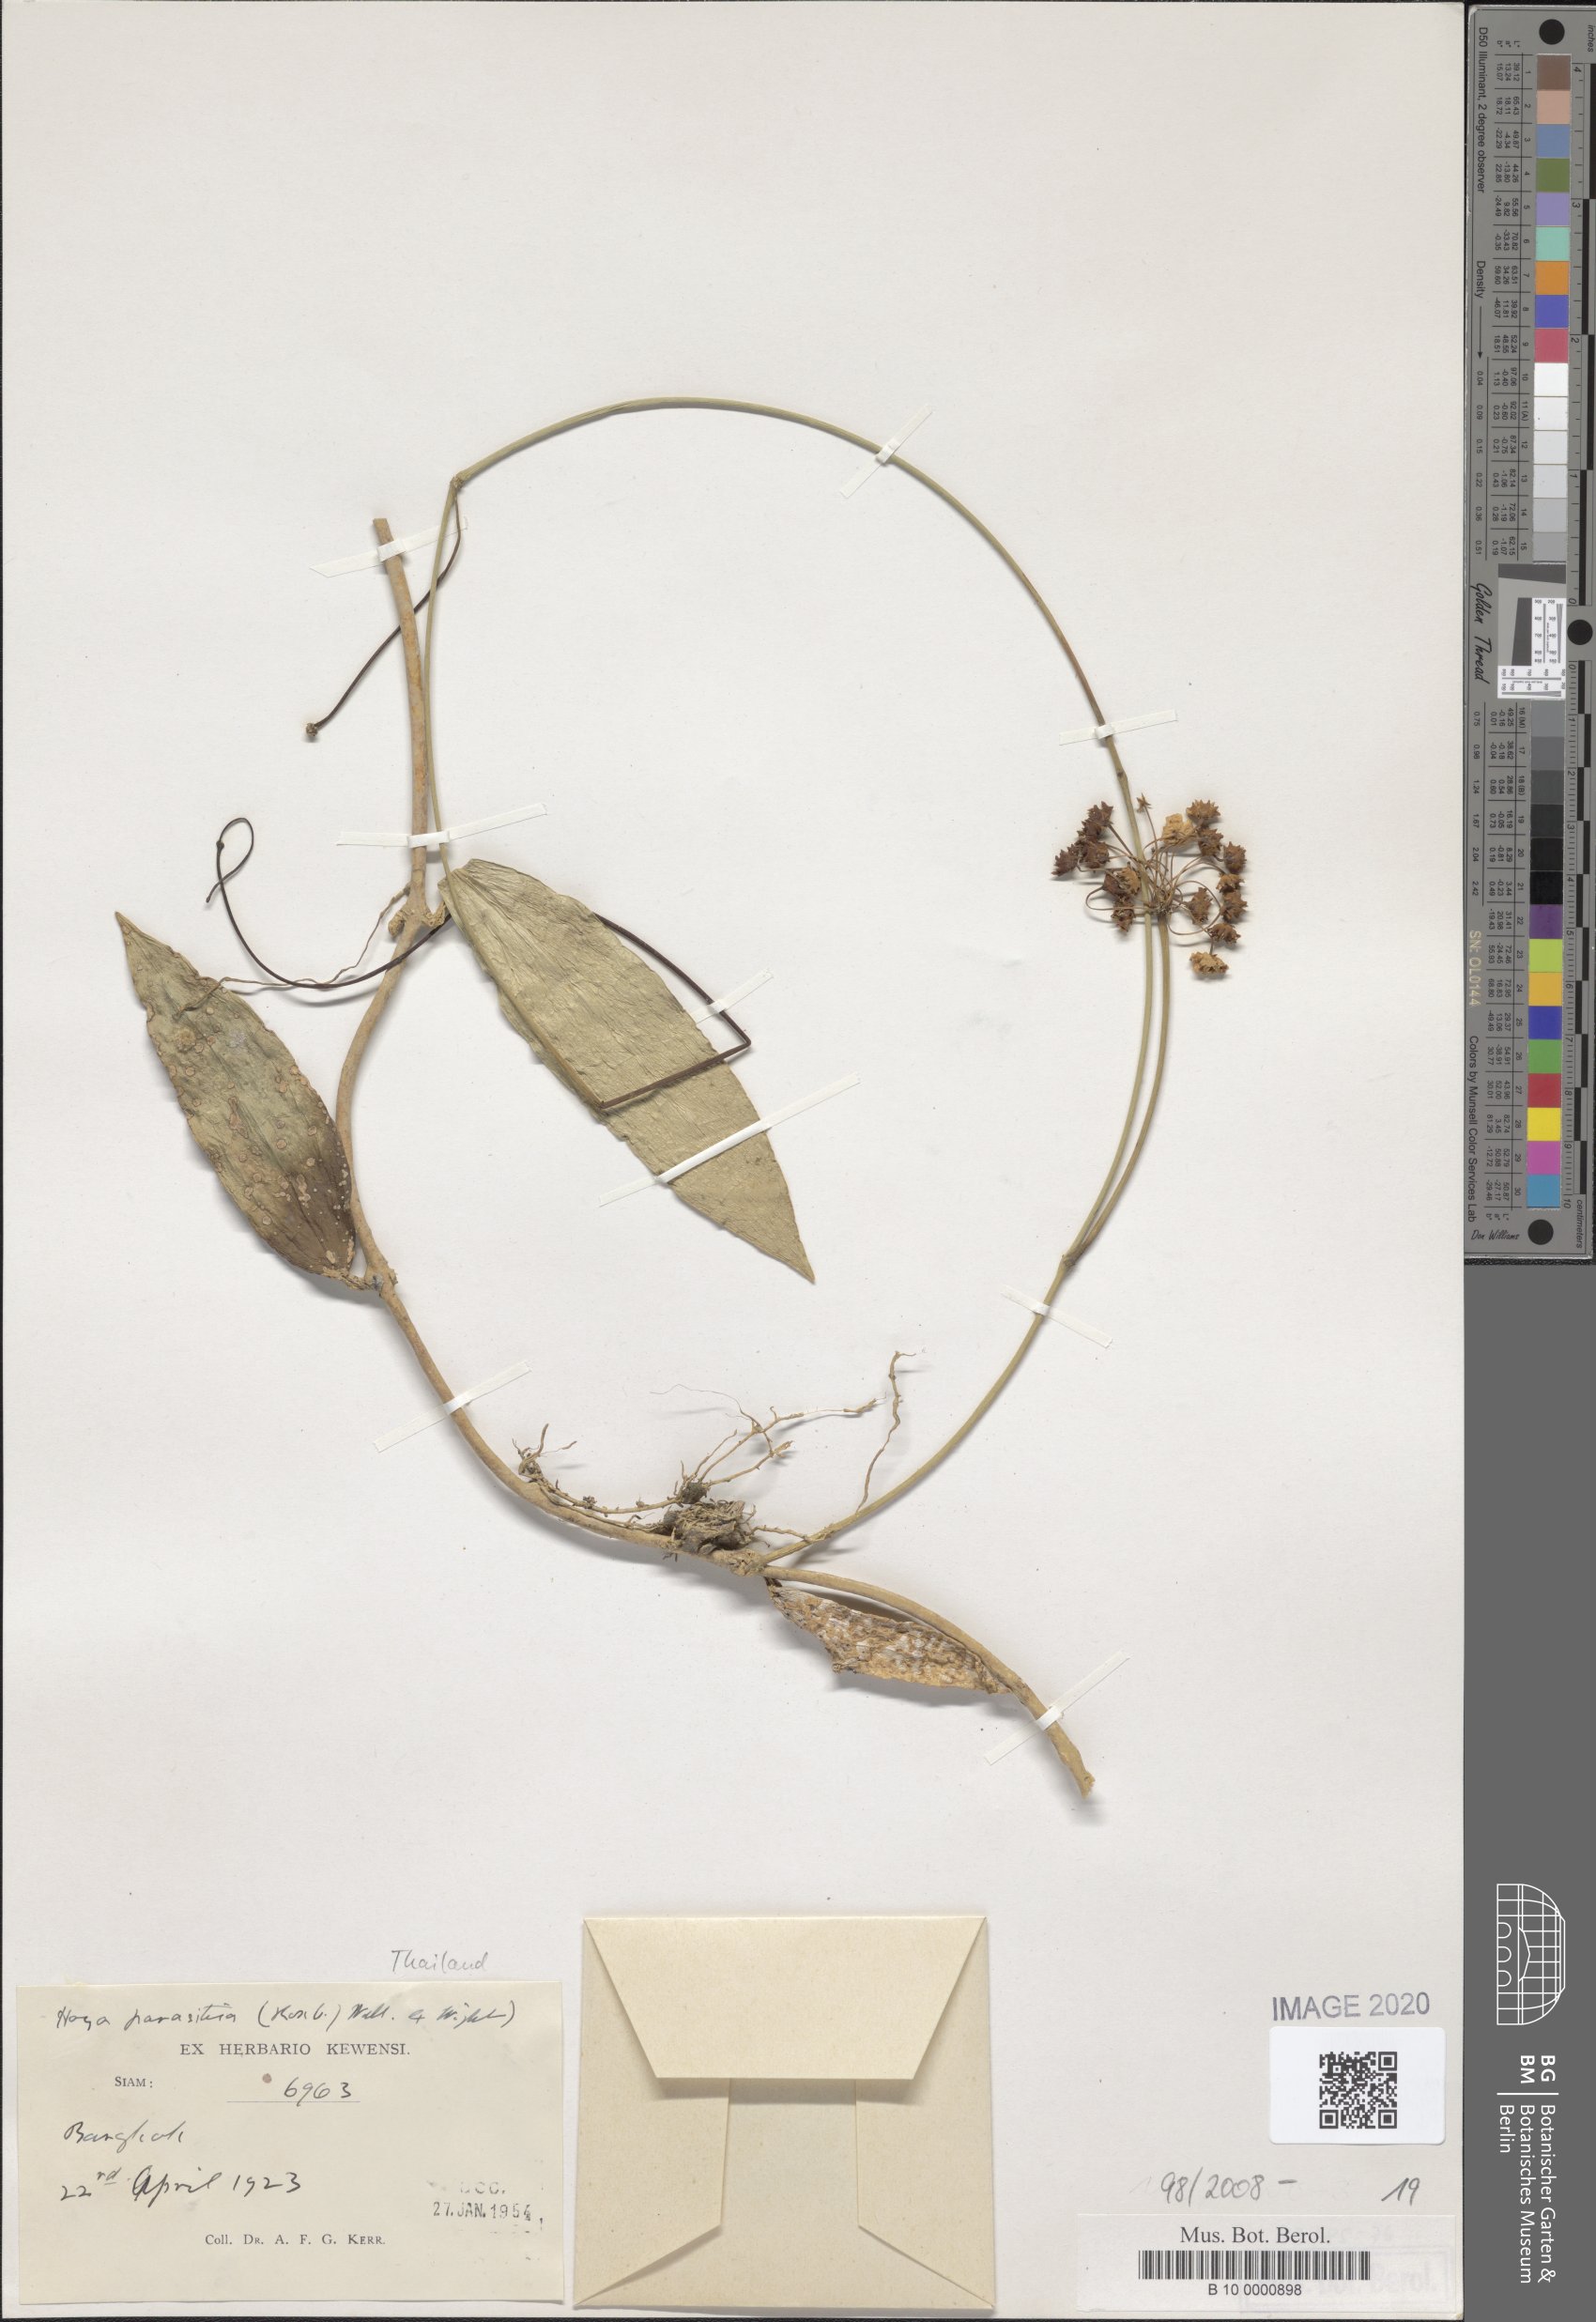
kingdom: Plantae
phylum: Tracheophyta
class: Magnoliopsida
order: Gentianales
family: Apocynaceae
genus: Hoya
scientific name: Hoya verticillata
